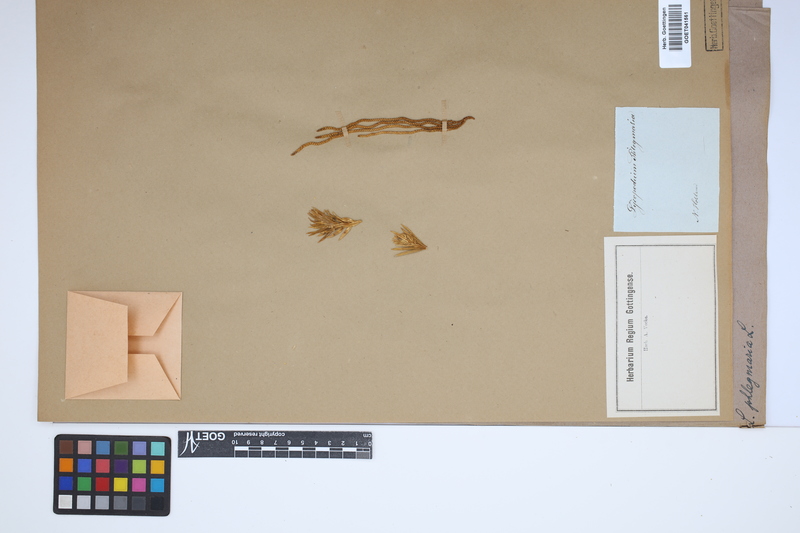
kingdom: Plantae
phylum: Tracheophyta
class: Lycopodiopsida
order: Lycopodiales
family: Lycopodiaceae
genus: Phlegmariurus
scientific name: Phlegmariurus phlegmaria
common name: Coarse tassel-fern
